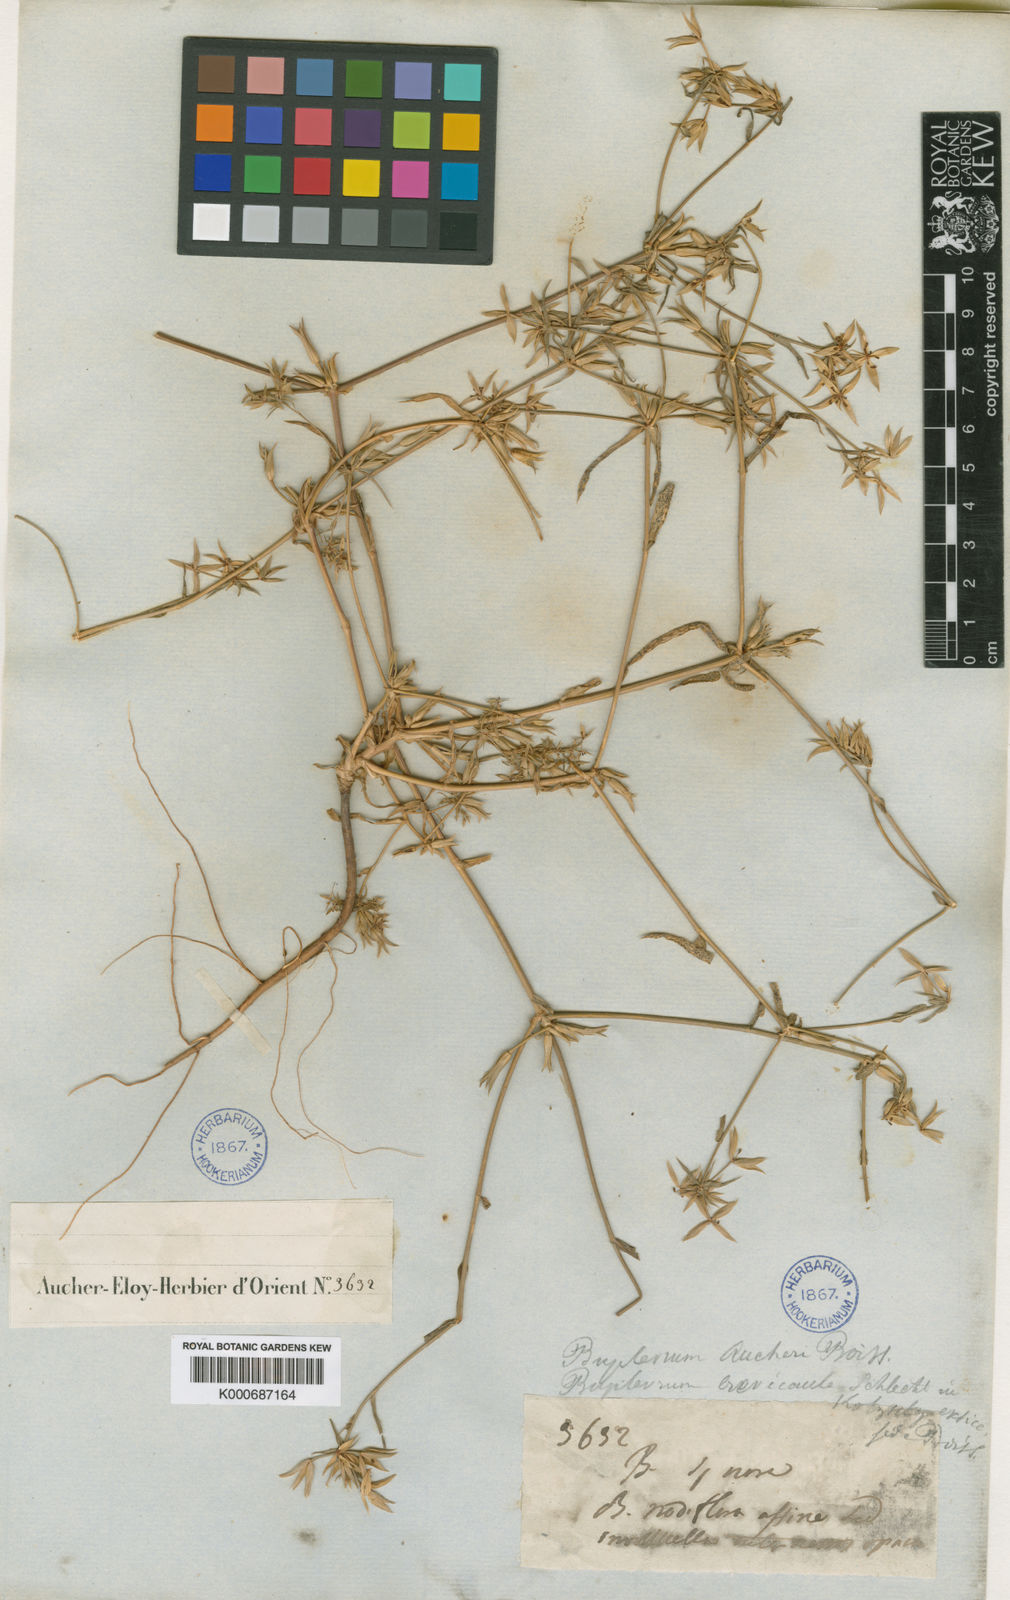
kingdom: Plantae
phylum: Tracheophyta
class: Magnoliopsida
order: Apiales
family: Apiaceae
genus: Bupleurum
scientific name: Bupleurum brevicaule
